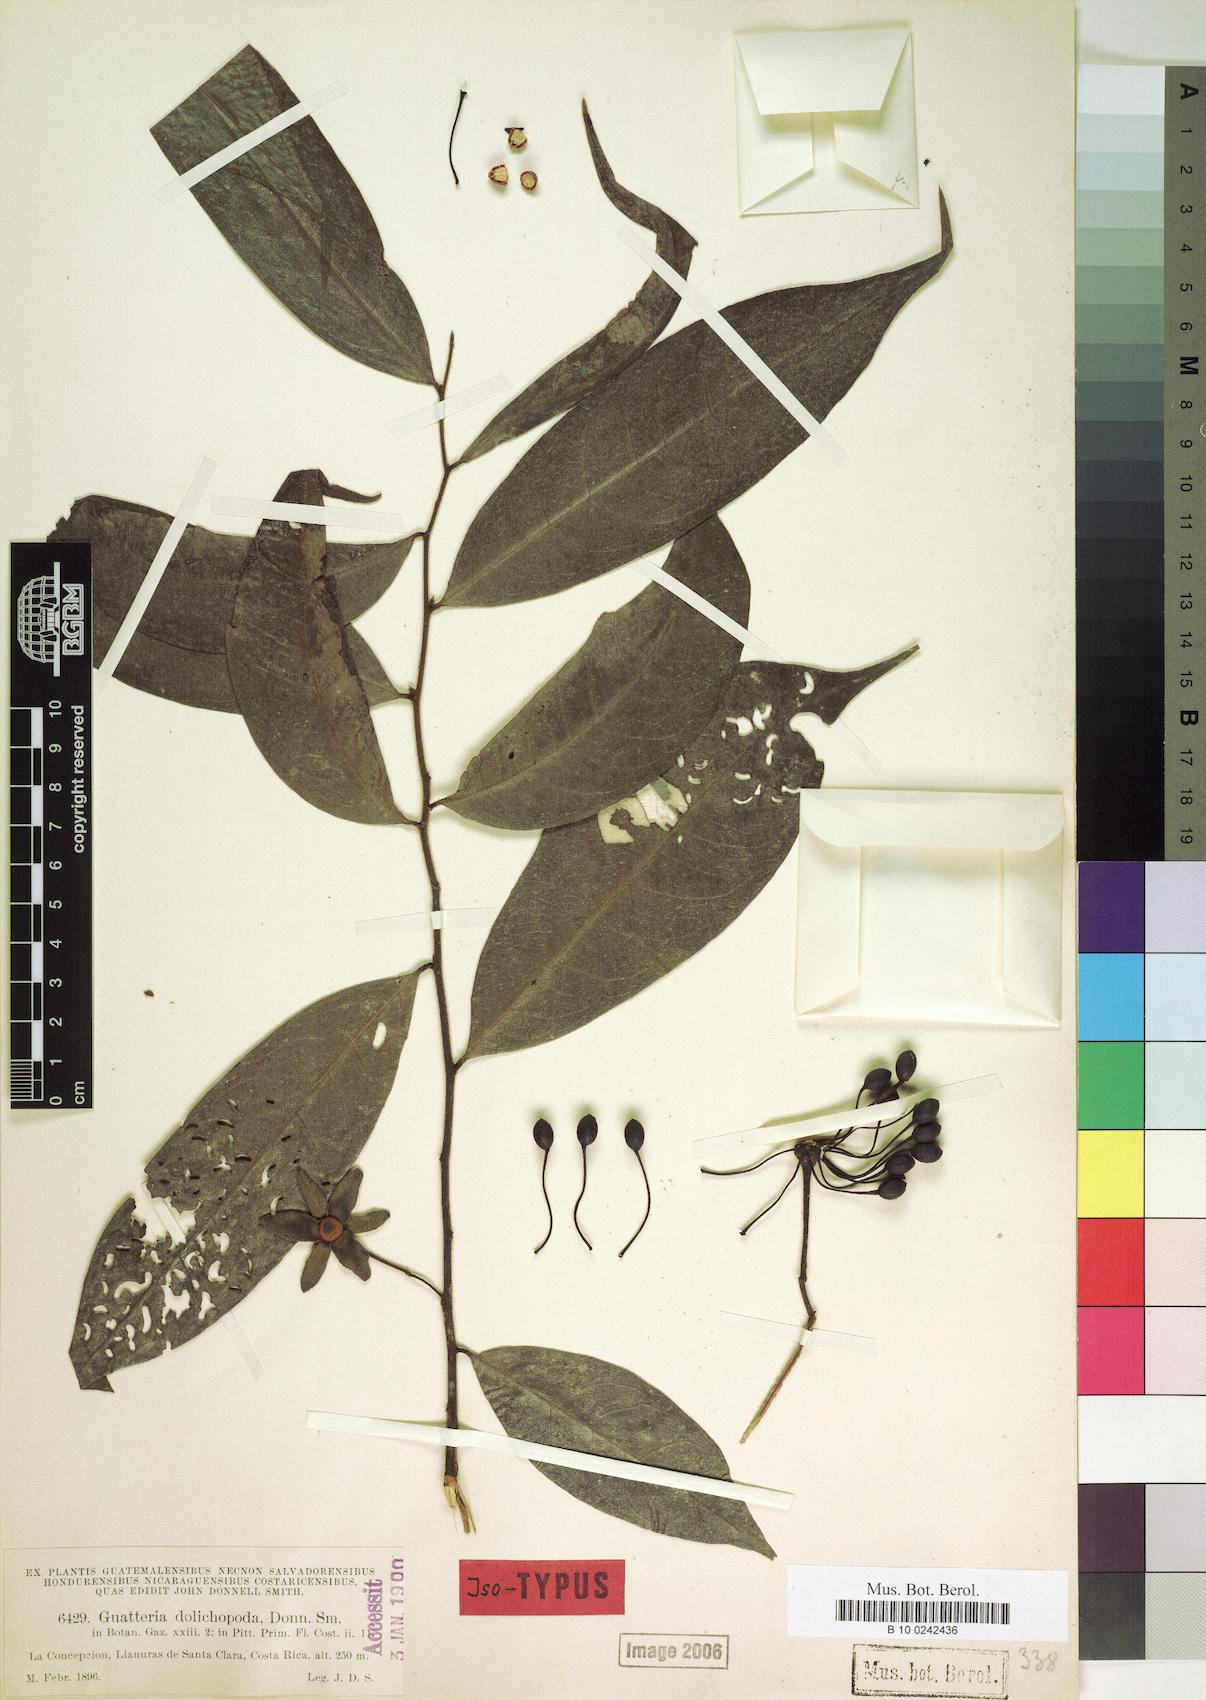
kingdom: Plantae
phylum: Tracheophyta
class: Magnoliopsida
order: Magnoliales
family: Annonaceae
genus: Guatteria
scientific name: Guatteria dolichopoda
